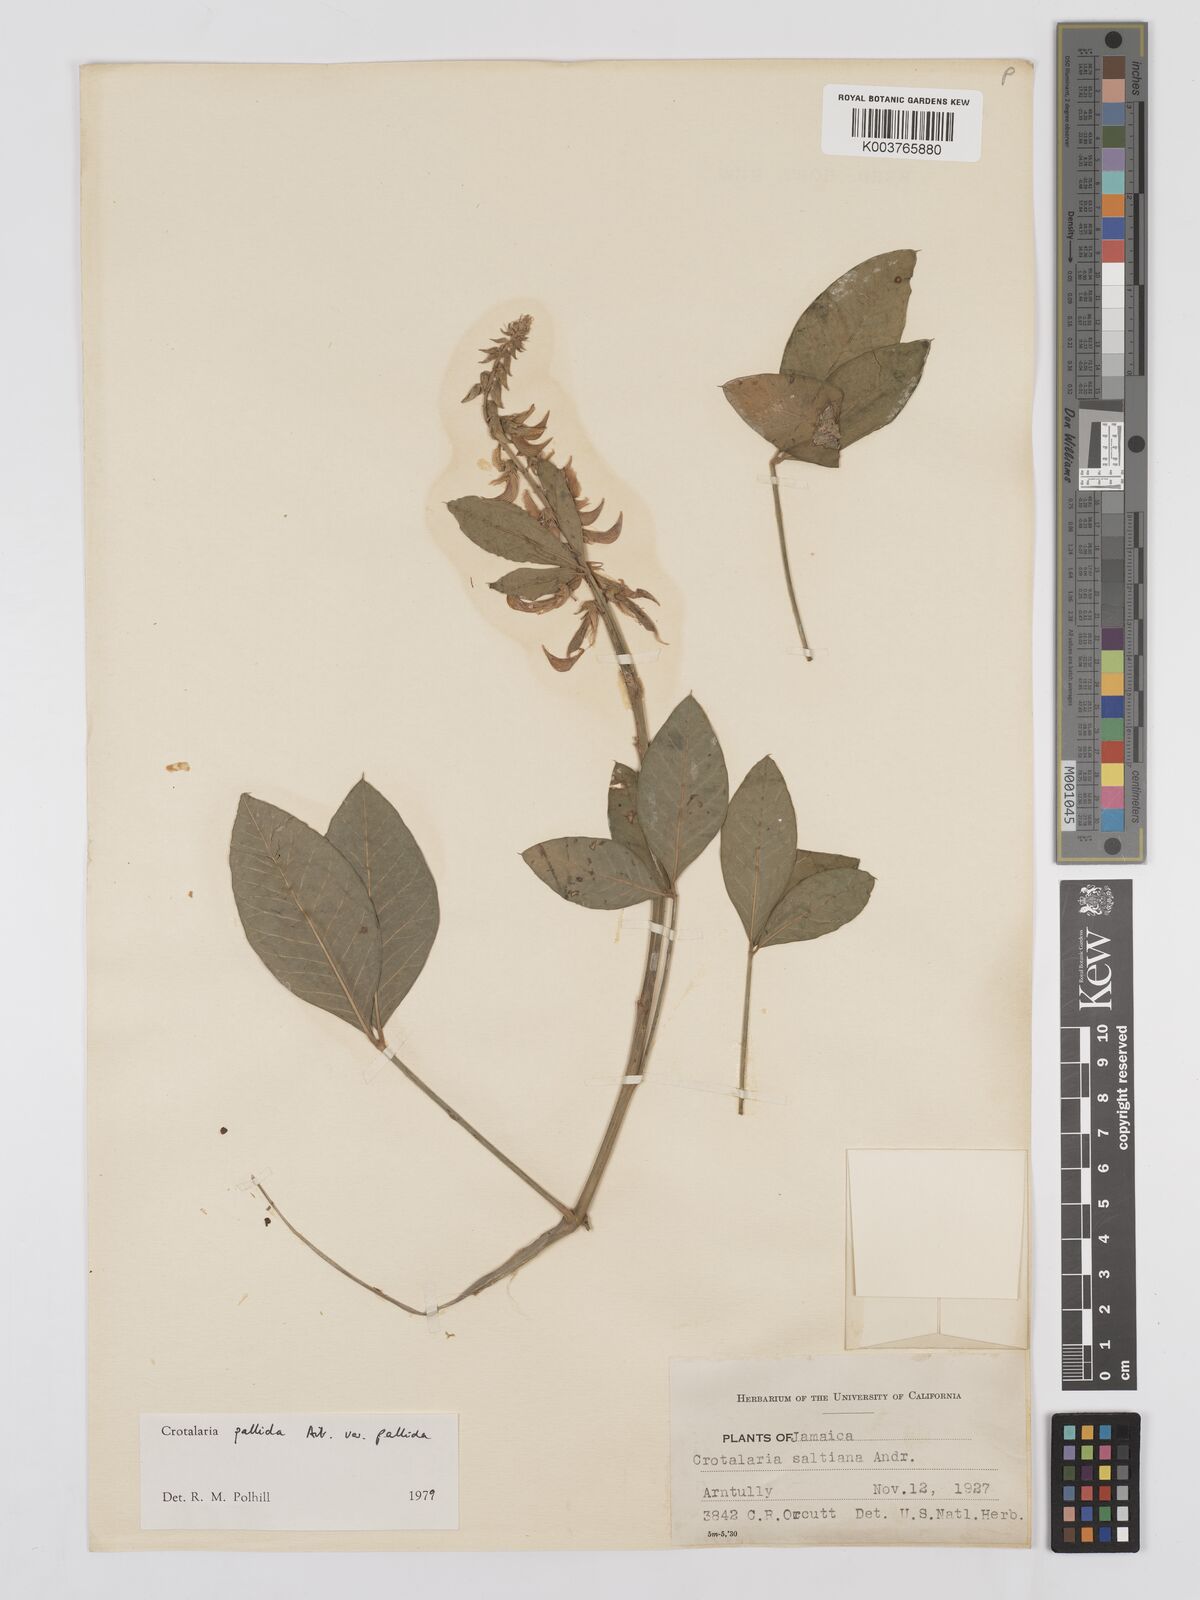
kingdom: Plantae
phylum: Tracheophyta
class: Magnoliopsida
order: Fabales
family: Fabaceae
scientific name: Fabaceae
